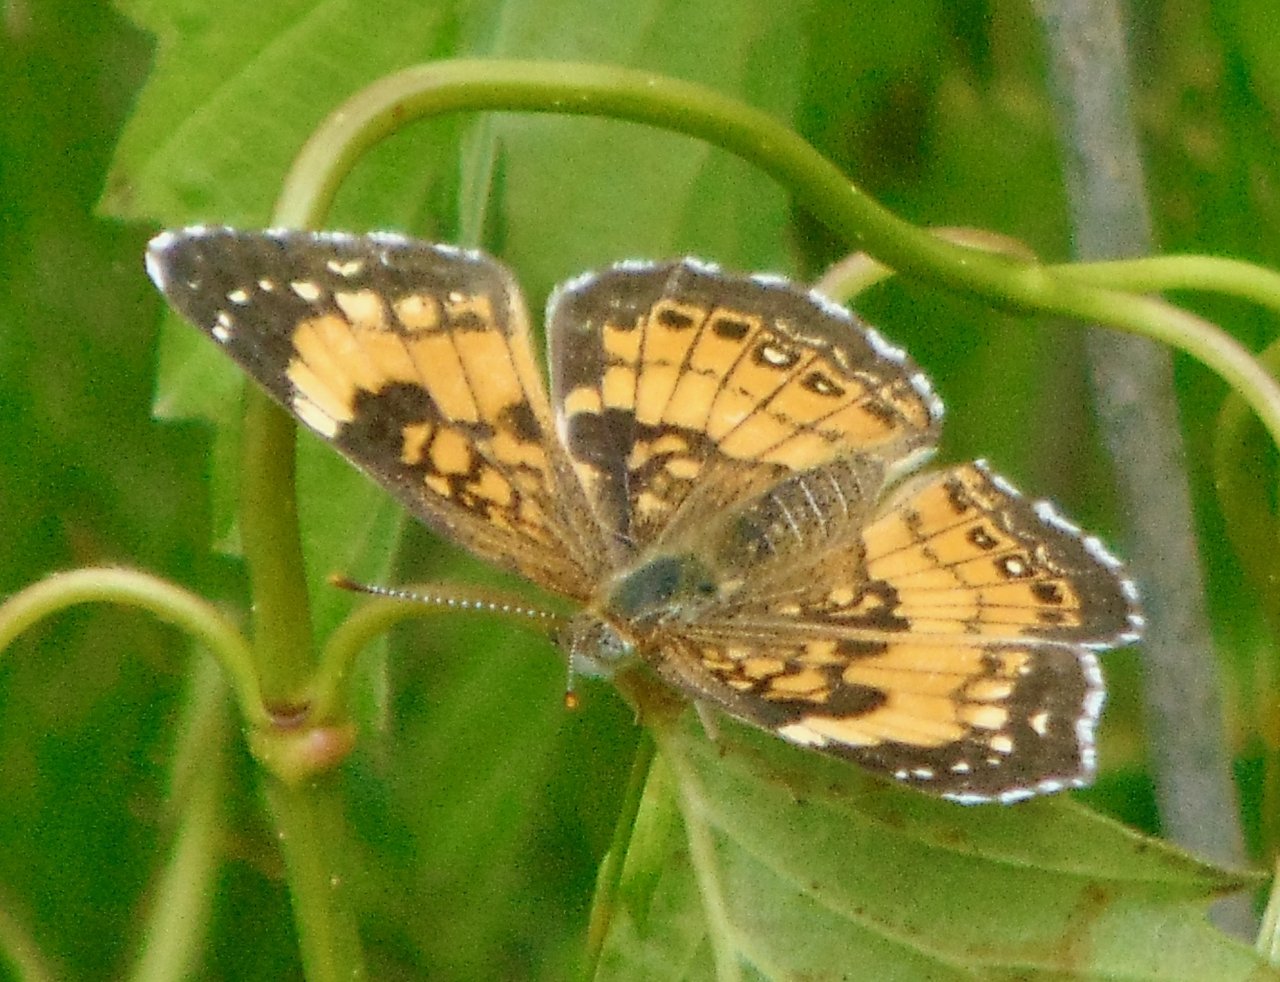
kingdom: Animalia
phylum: Arthropoda
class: Insecta
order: Lepidoptera
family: Nymphalidae
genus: Chlosyne
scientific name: Chlosyne nycteis
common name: Silvery Checkerspot
